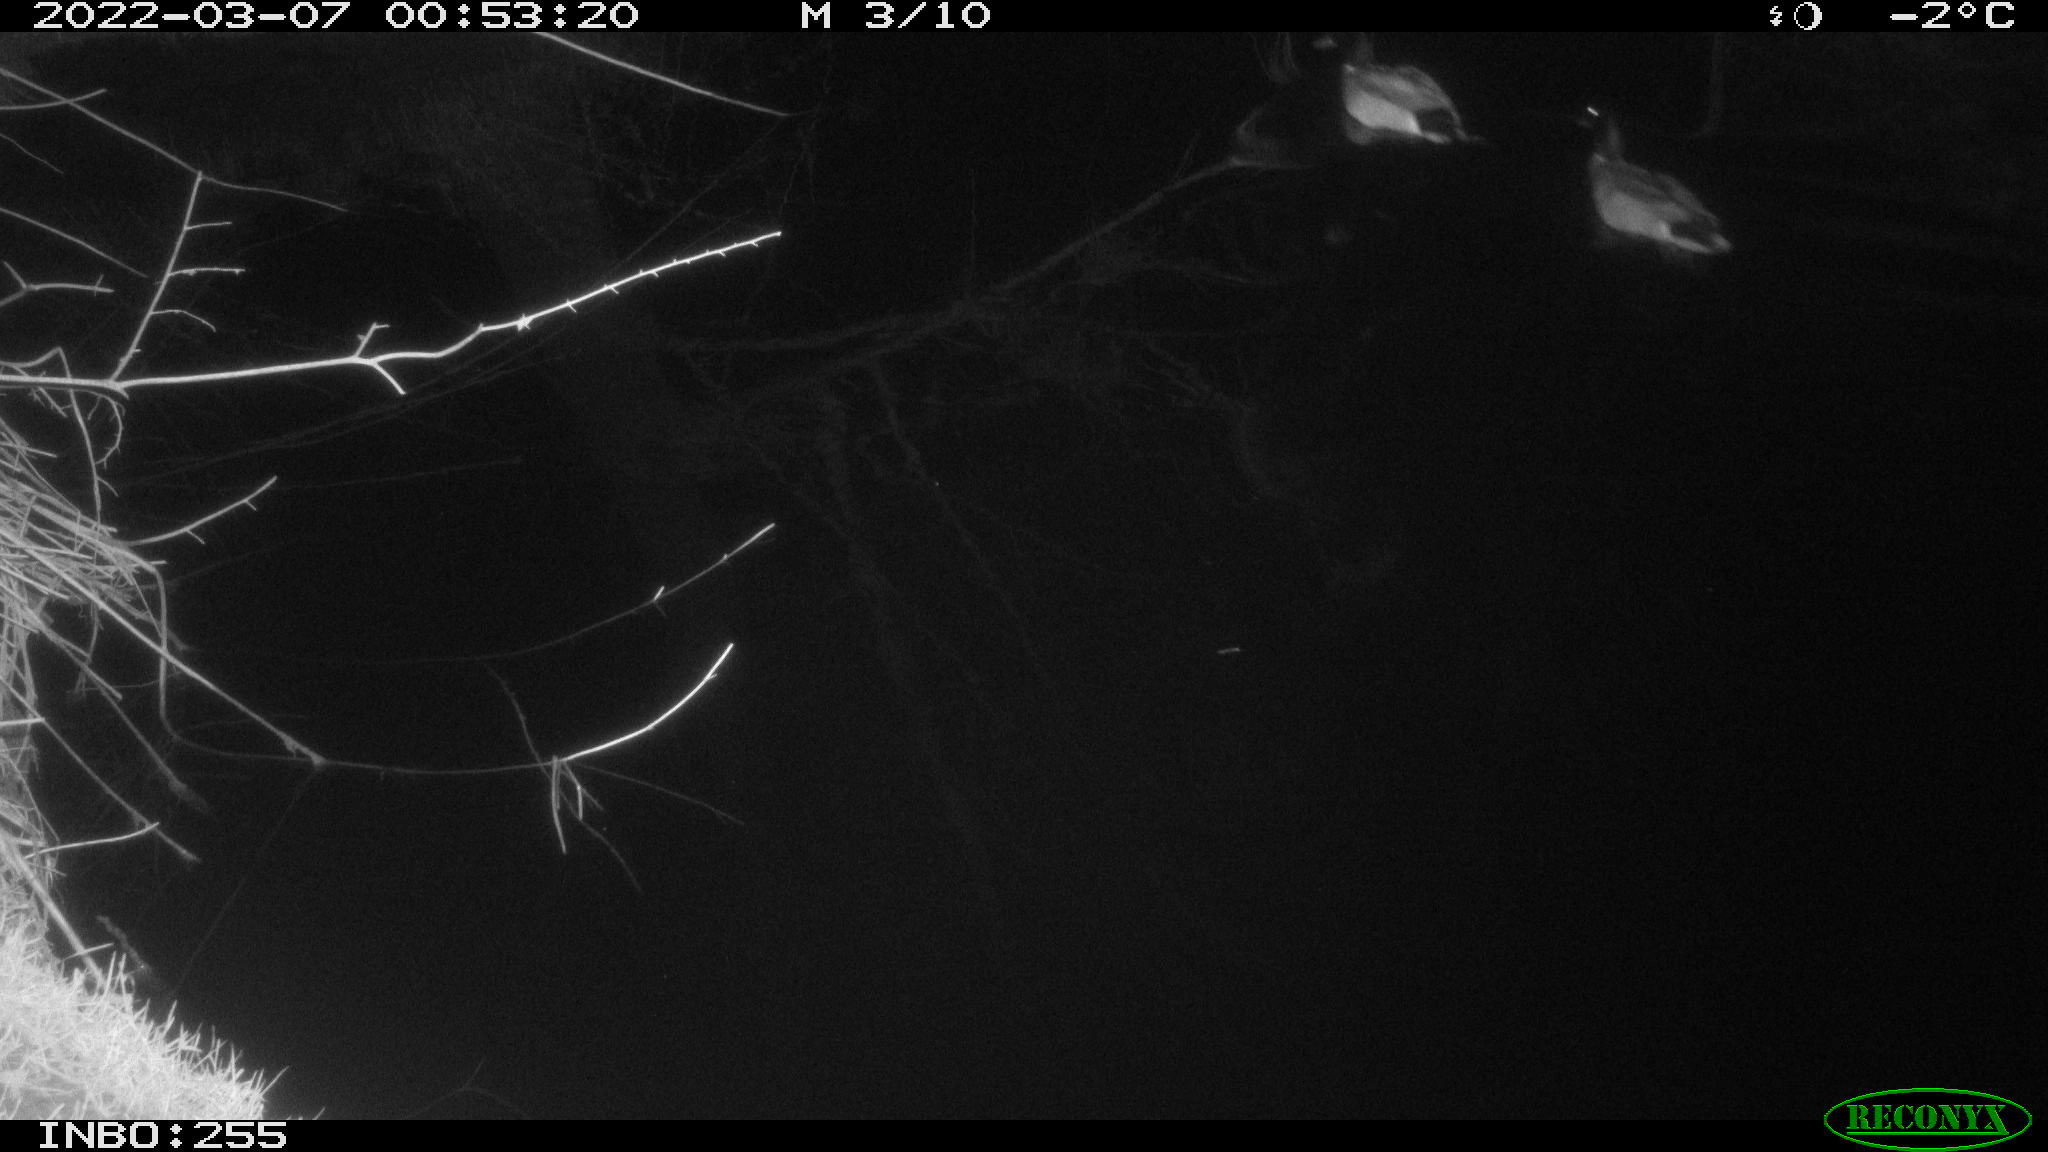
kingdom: Animalia
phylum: Chordata
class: Aves
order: Anseriformes
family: Anatidae
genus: Anas
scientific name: Anas platyrhynchos
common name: Mallard
